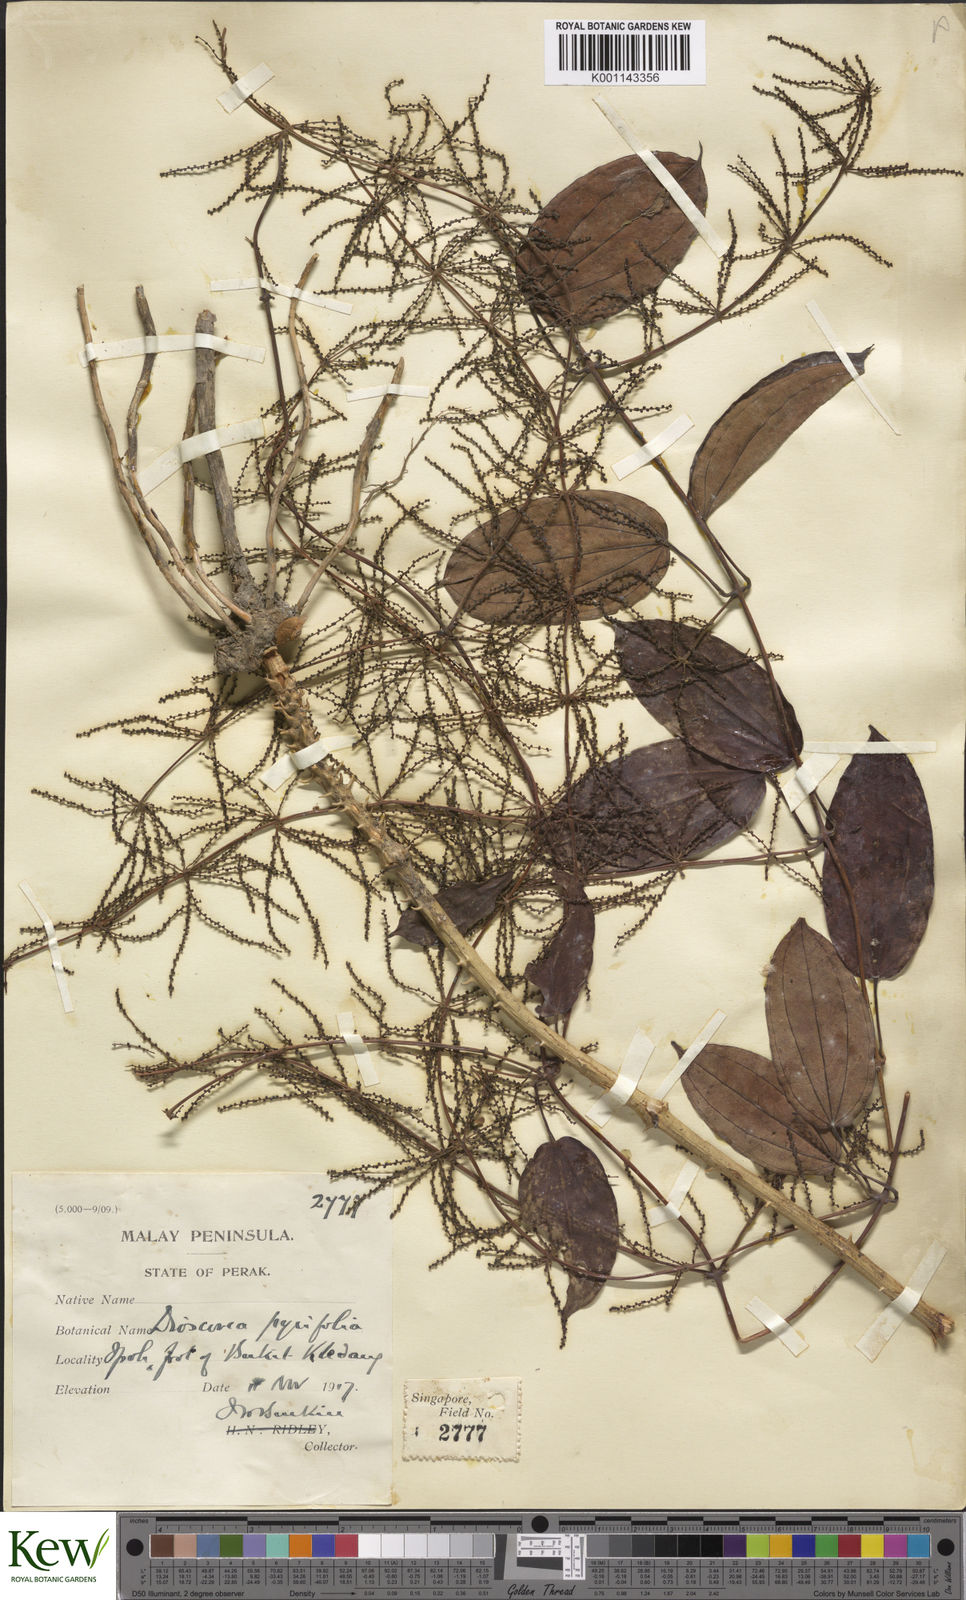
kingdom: Plantae
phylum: Tracheophyta
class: Liliopsida
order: Dioscoreales
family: Dioscoreaceae
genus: Dioscorea
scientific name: Dioscorea pyrifolia
